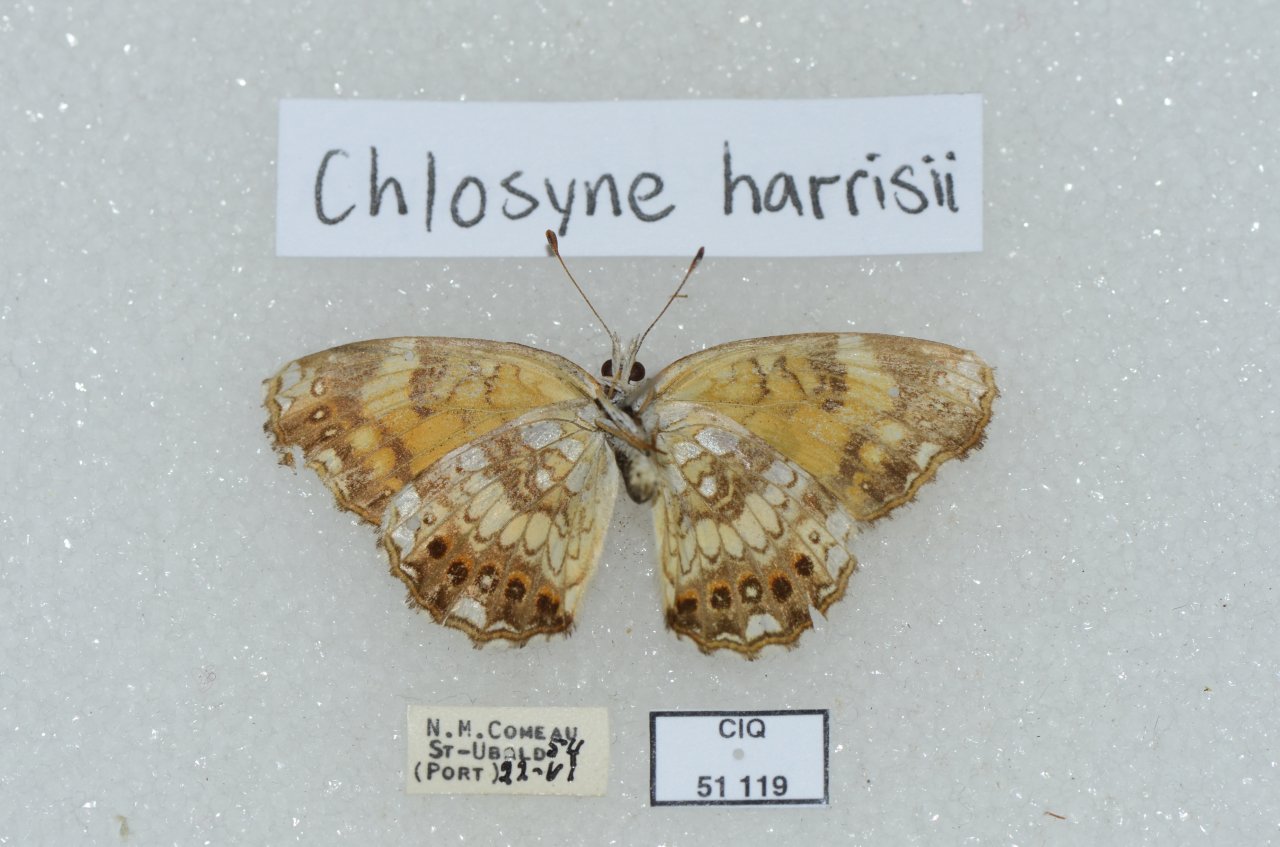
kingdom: Animalia
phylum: Arthropoda
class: Insecta
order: Lepidoptera
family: Nymphalidae
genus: Chlosyne
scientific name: Chlosyne nycteis
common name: Silvery Checkerspot
